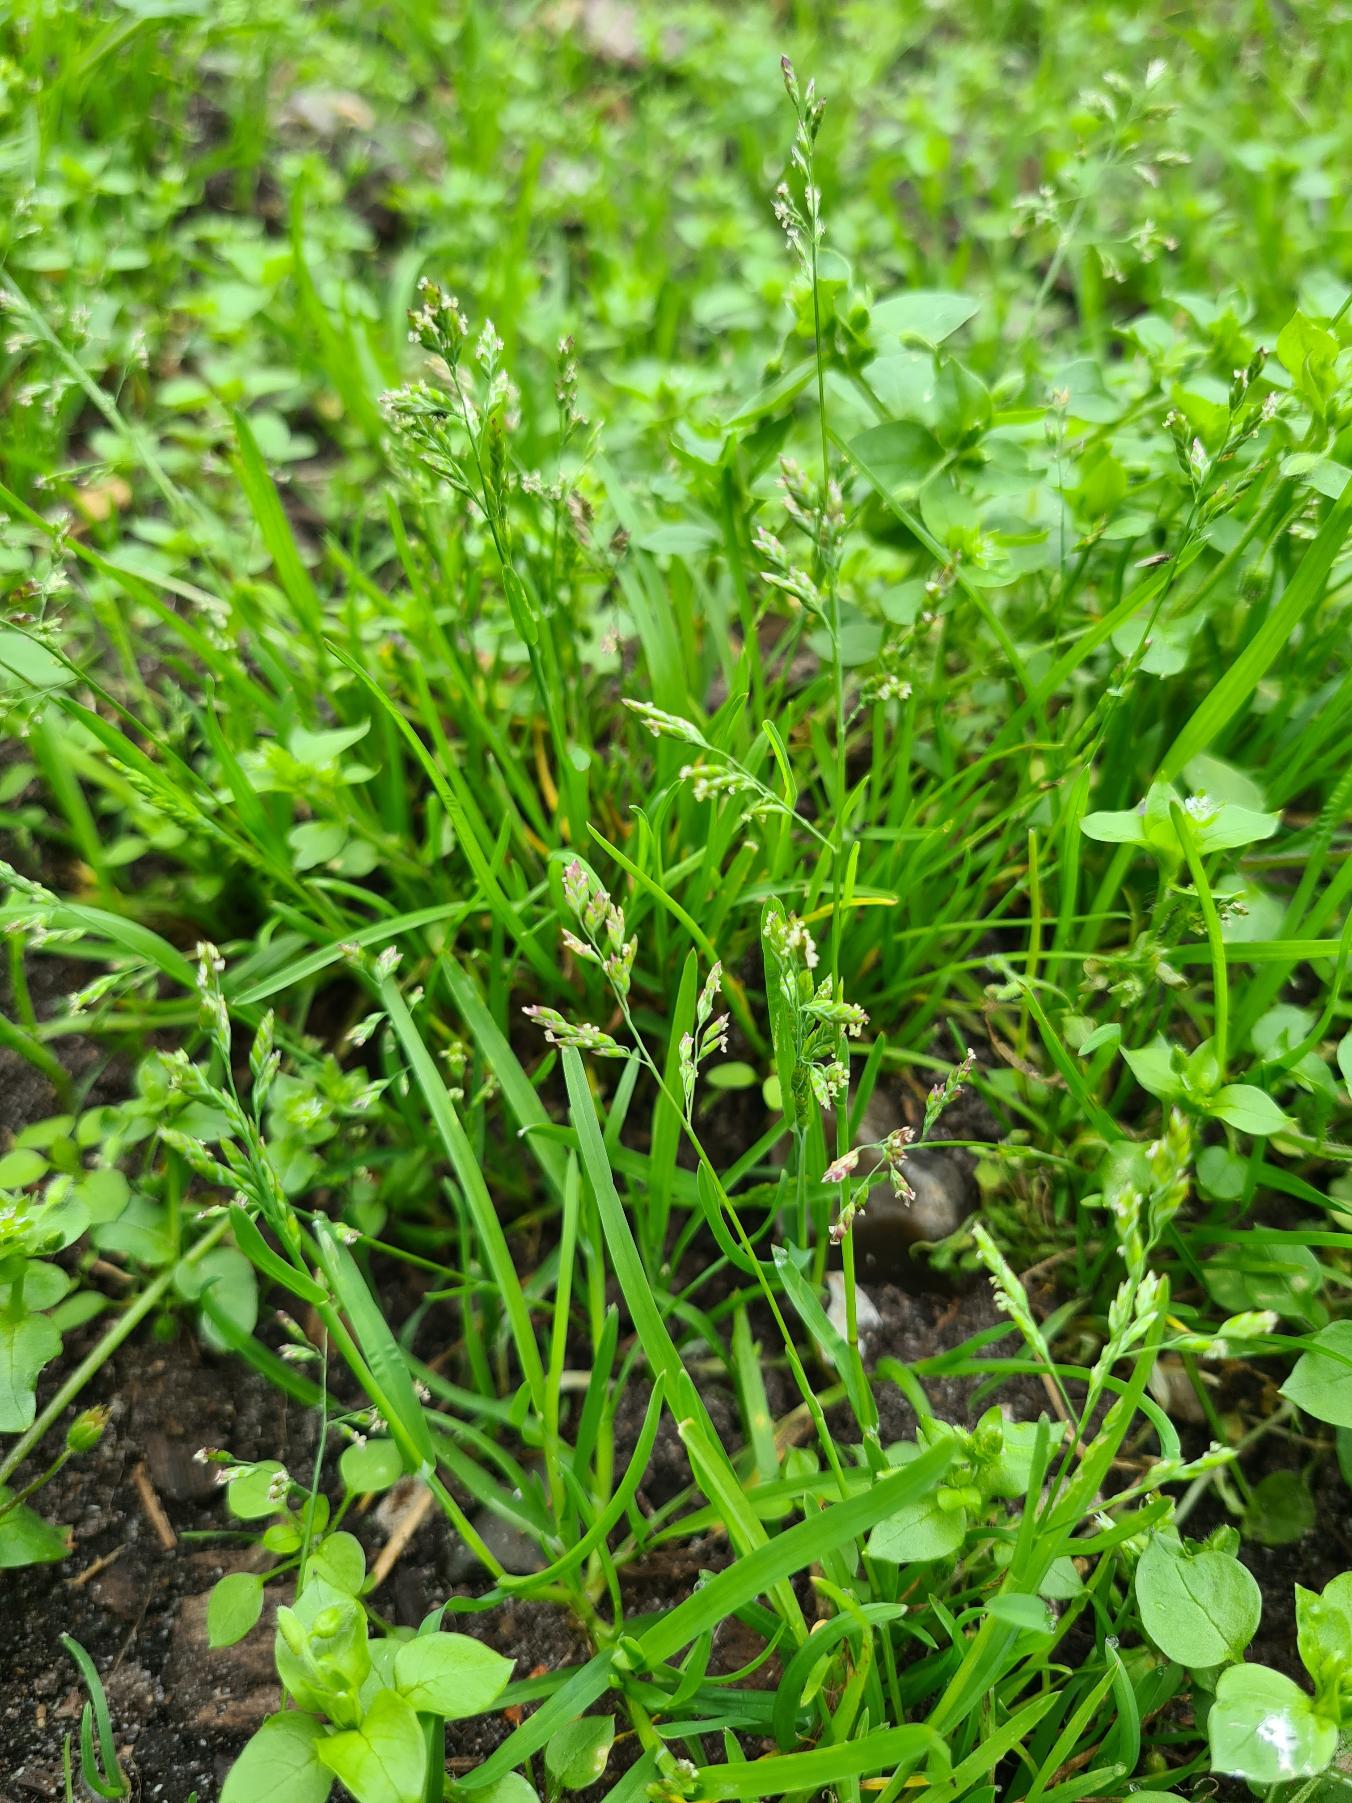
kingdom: Plantae
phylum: Tracheophyta
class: Liliopsida
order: Poales
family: Poaceae
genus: Poa
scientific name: Poa annua
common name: Enårig rapgræs
